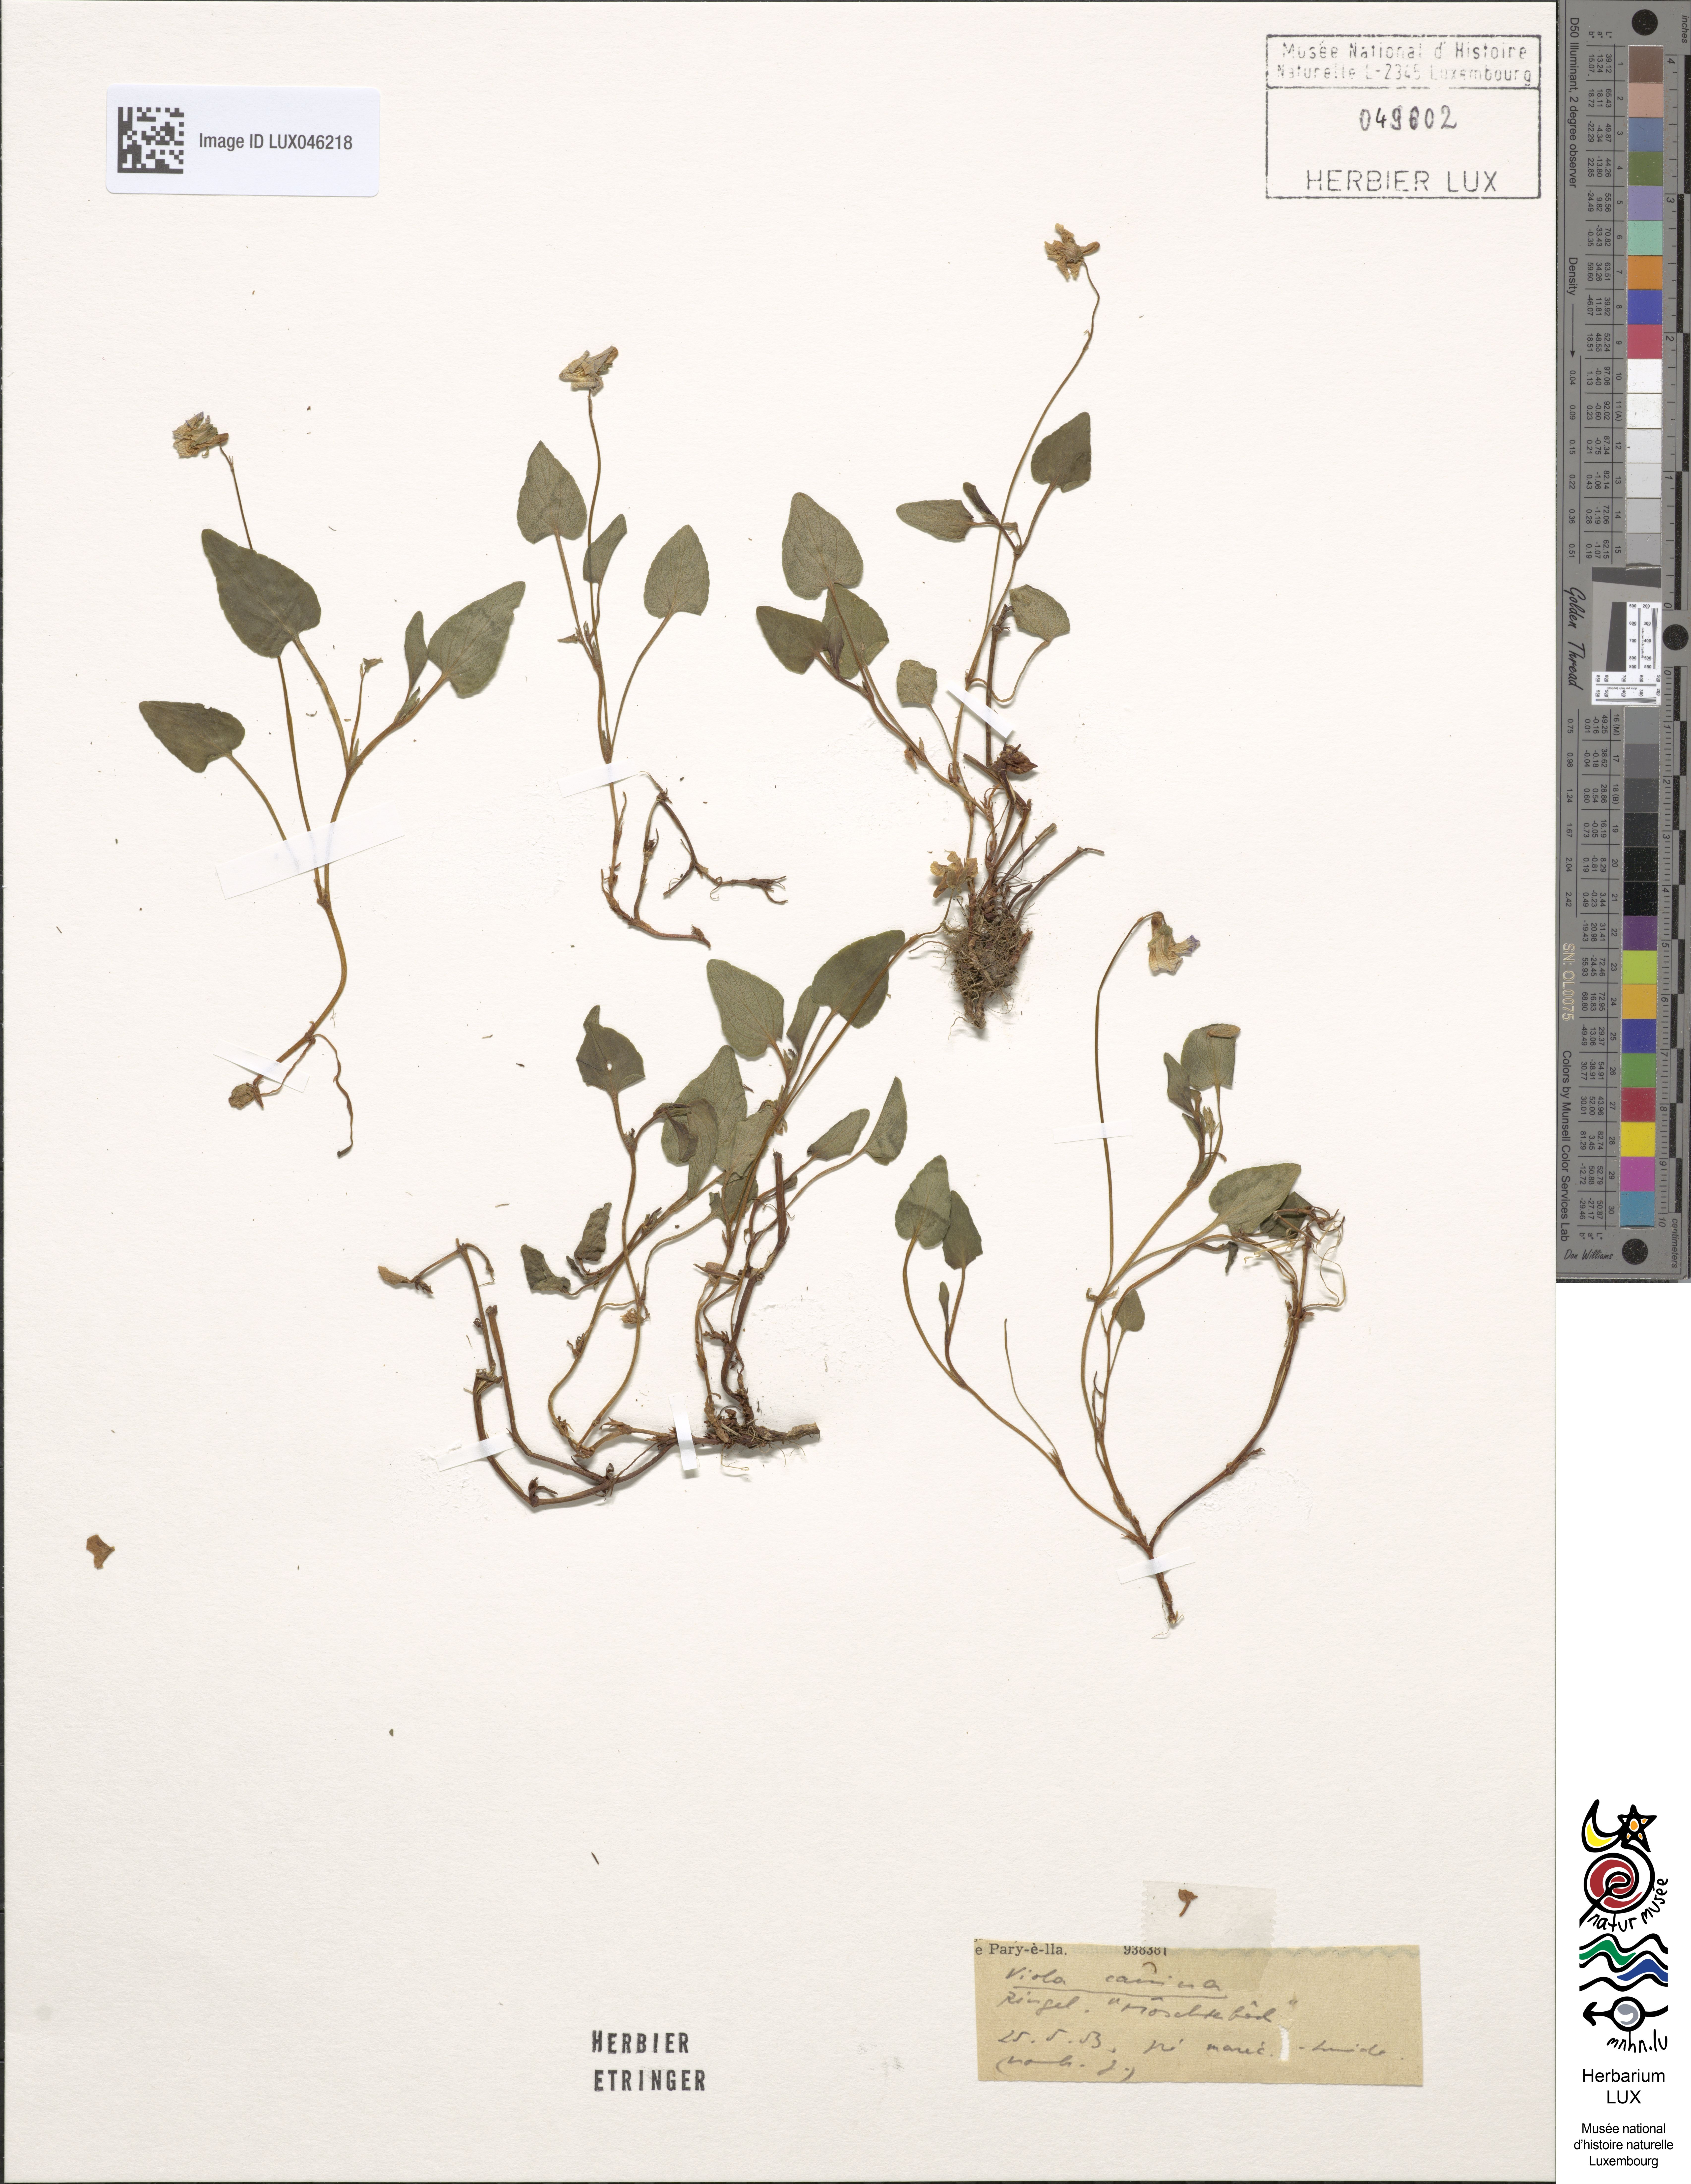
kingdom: Plantae
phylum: Tracheophyta
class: Magnoliopsida
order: Malpighiales
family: Violaceae
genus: Viola
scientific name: Viola canina
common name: Heath dog-violet
